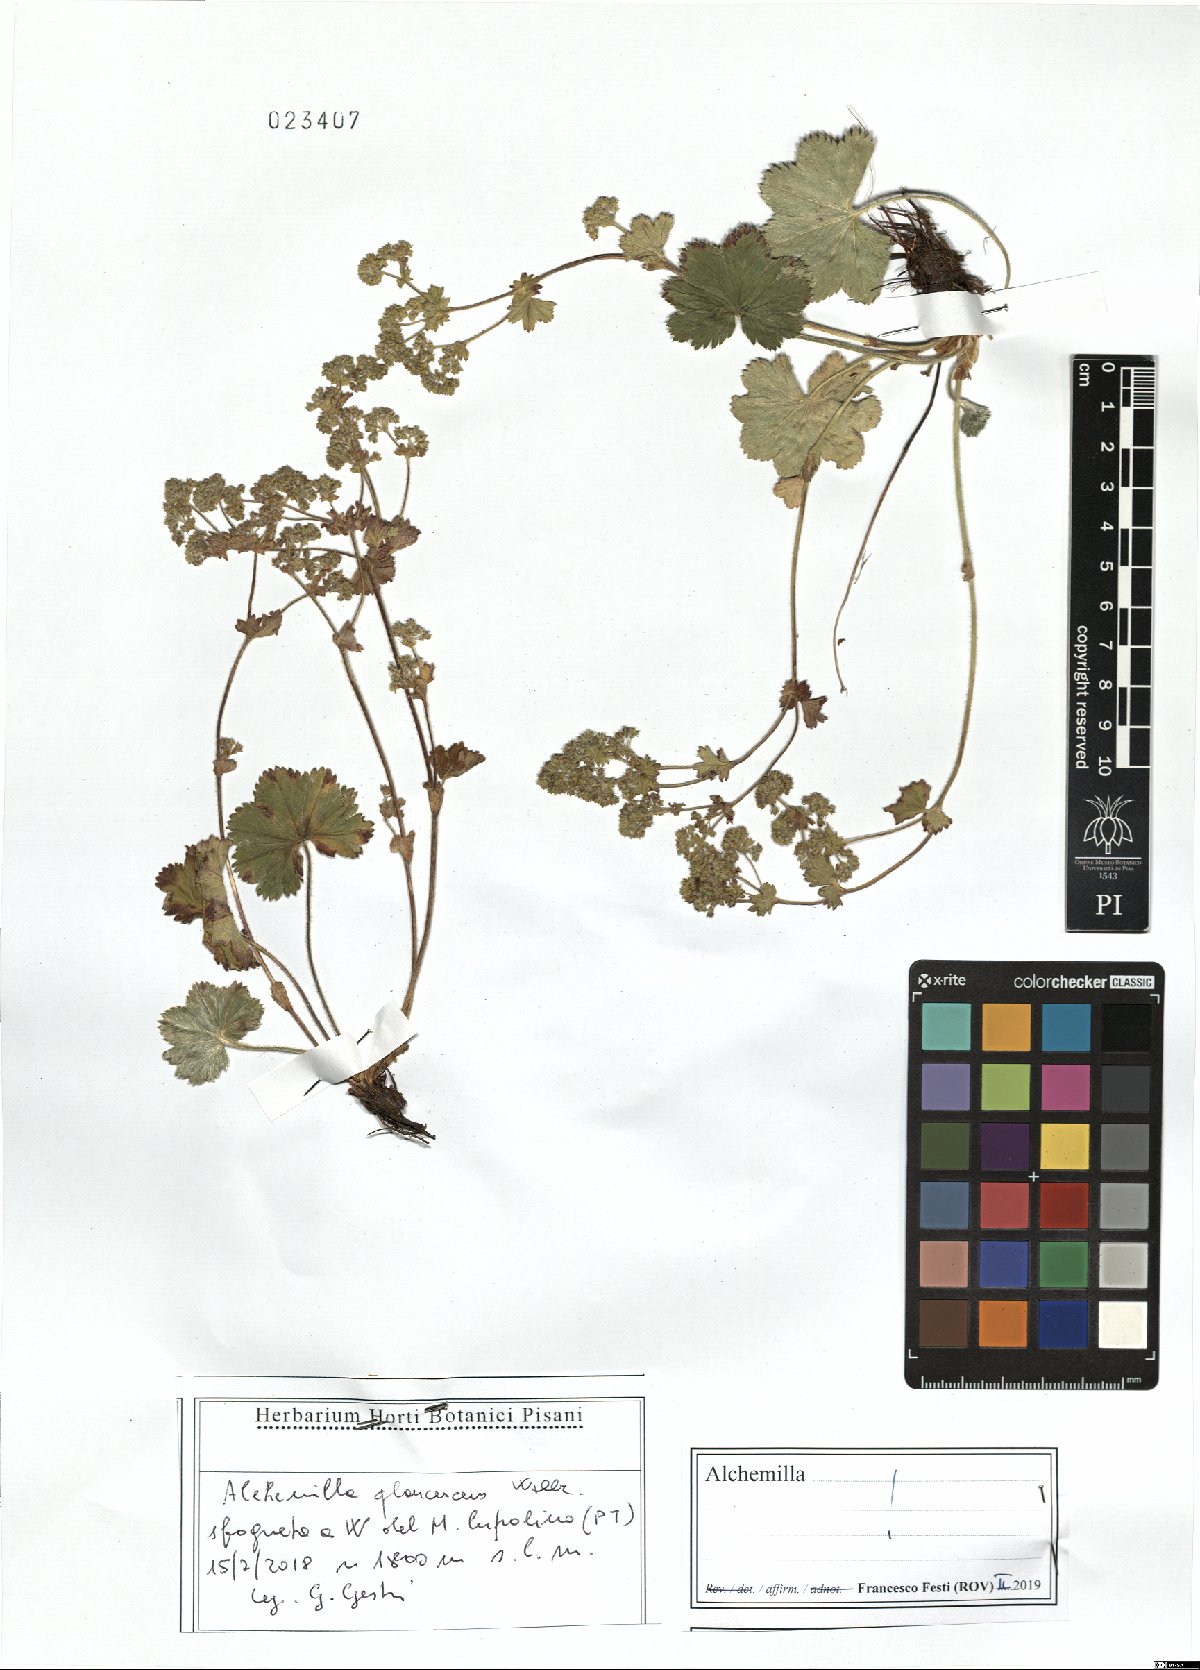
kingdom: Plantae
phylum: Tracheophyta
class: Magnoliopsida
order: Rosales
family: Rosaceae
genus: Alchemilla
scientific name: Alchemilla glaucescens
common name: Silky lady's mantle
